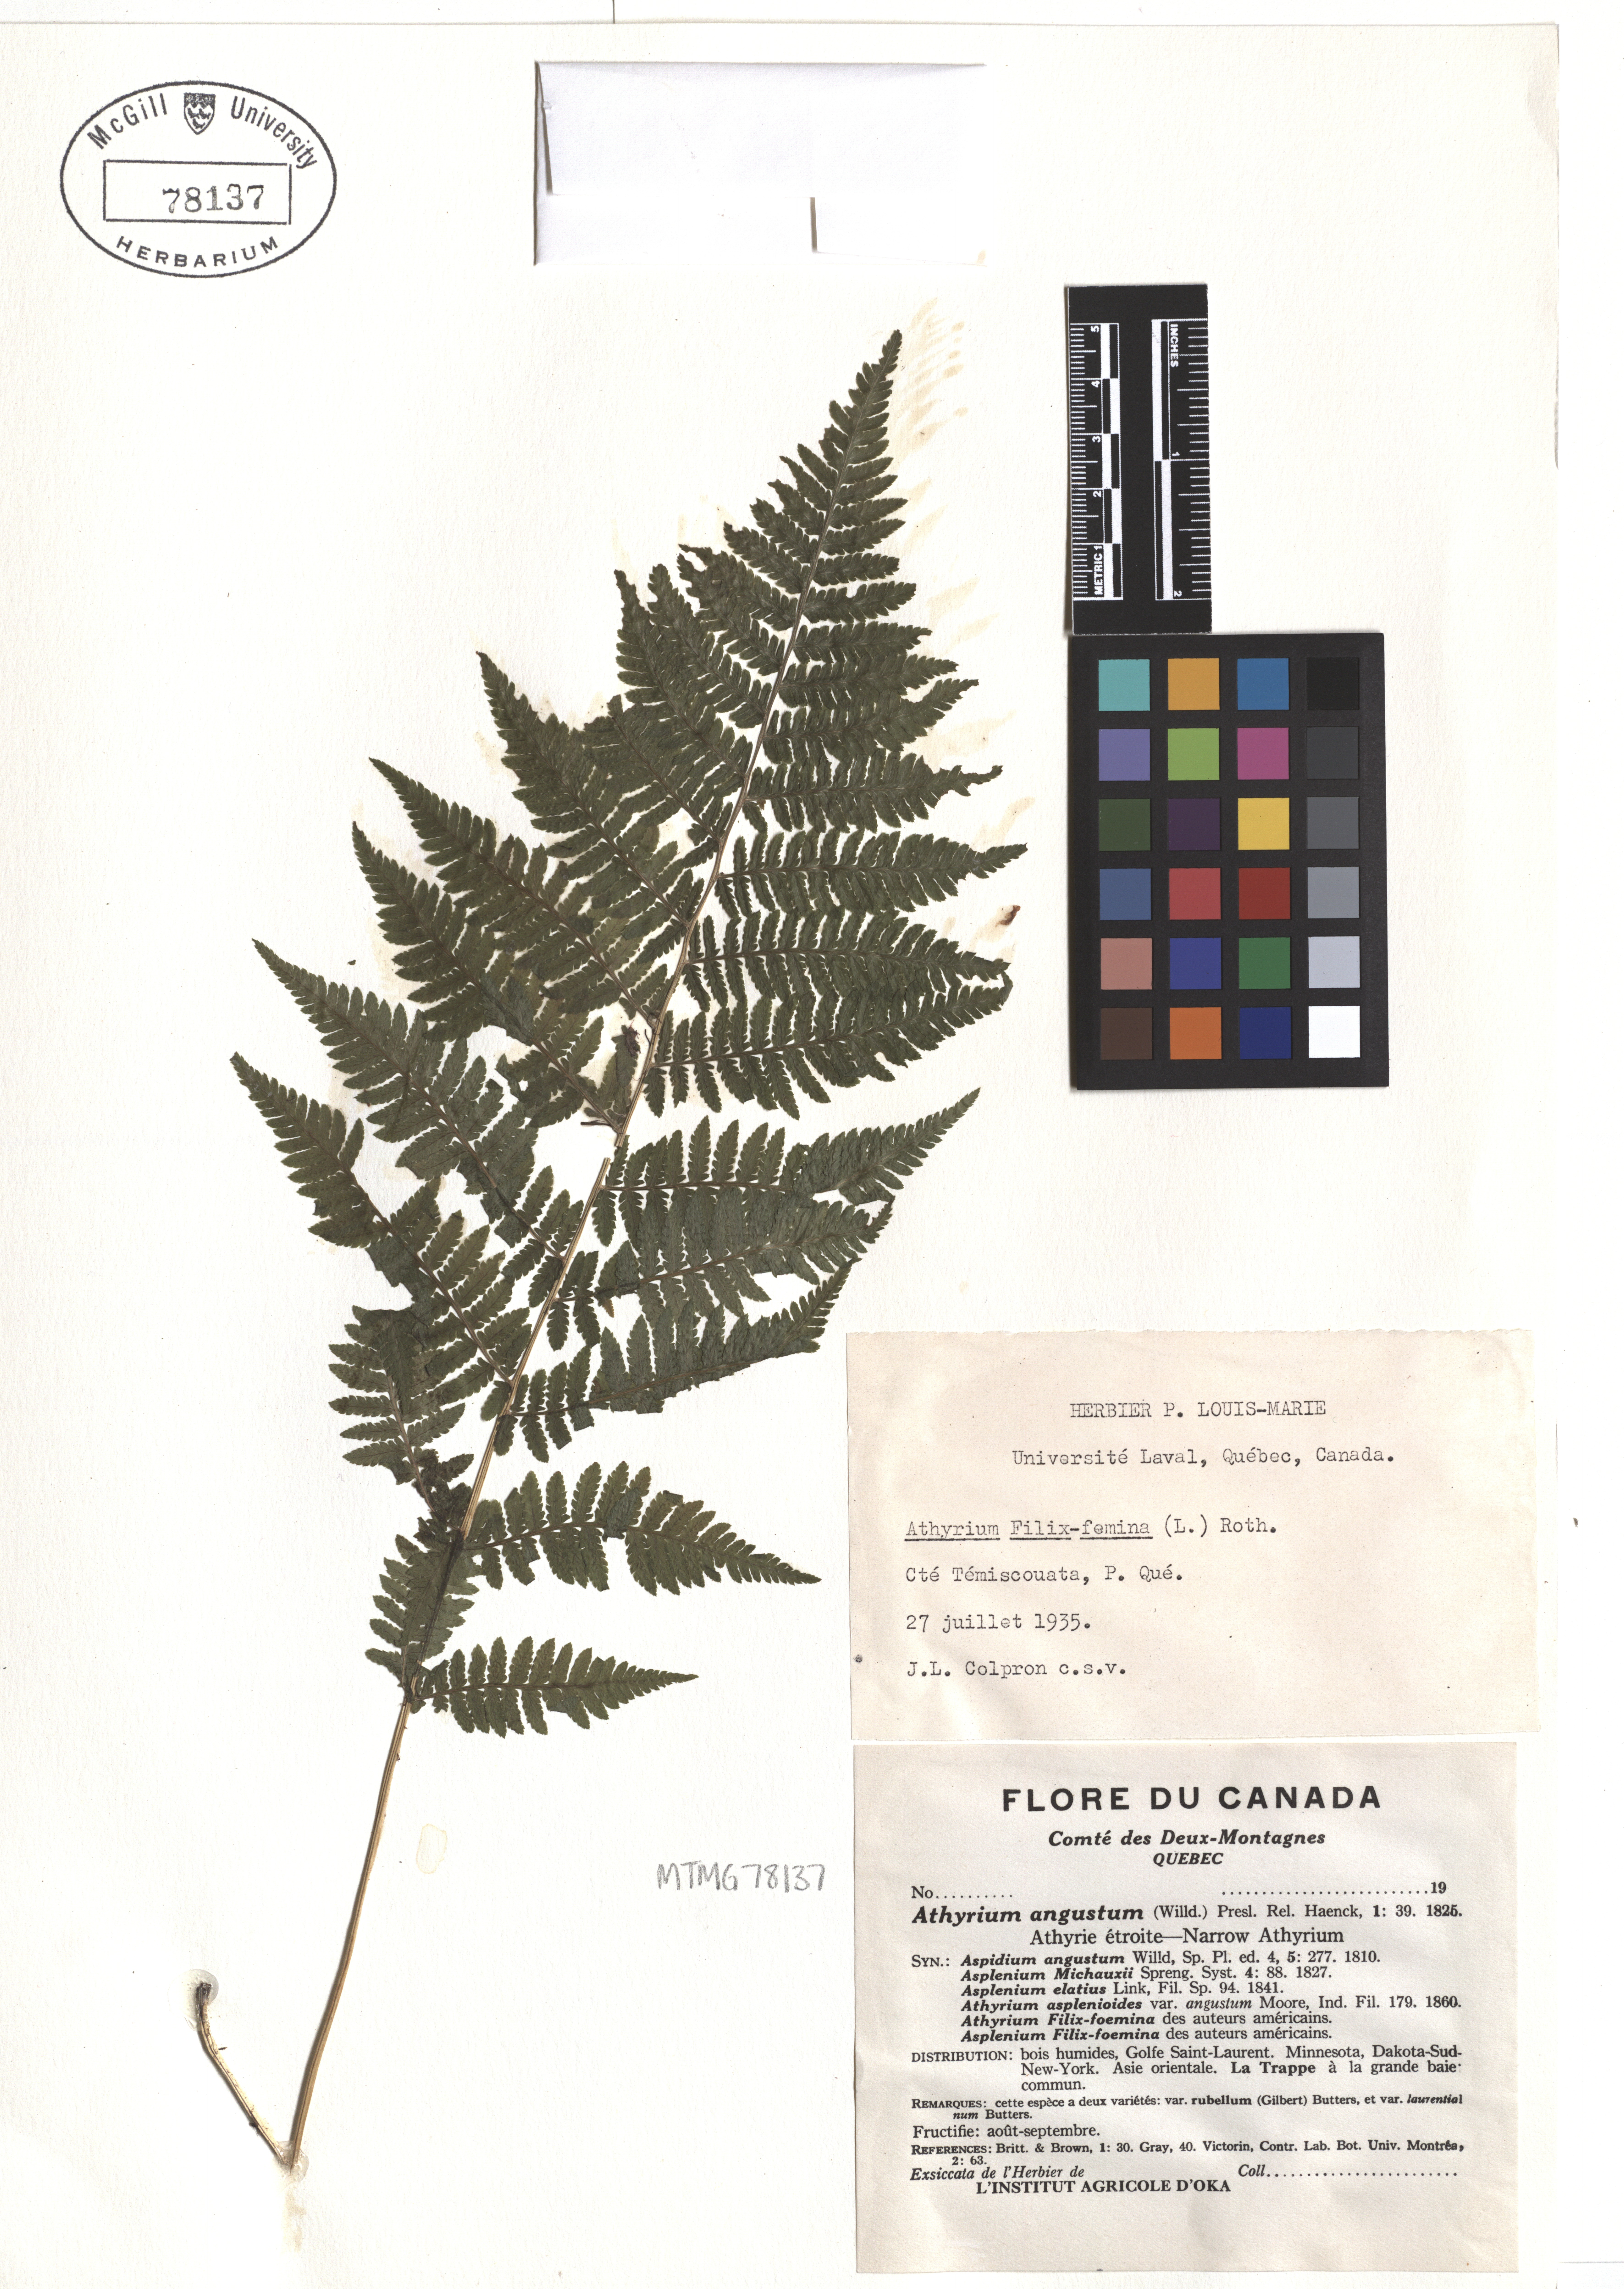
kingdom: Plantae
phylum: Tracheophyta
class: Polypodiopsida
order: Polypodiales
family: Athyriaceae
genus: Athyrium
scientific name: Athyrium filix-femina
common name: Lady fern
